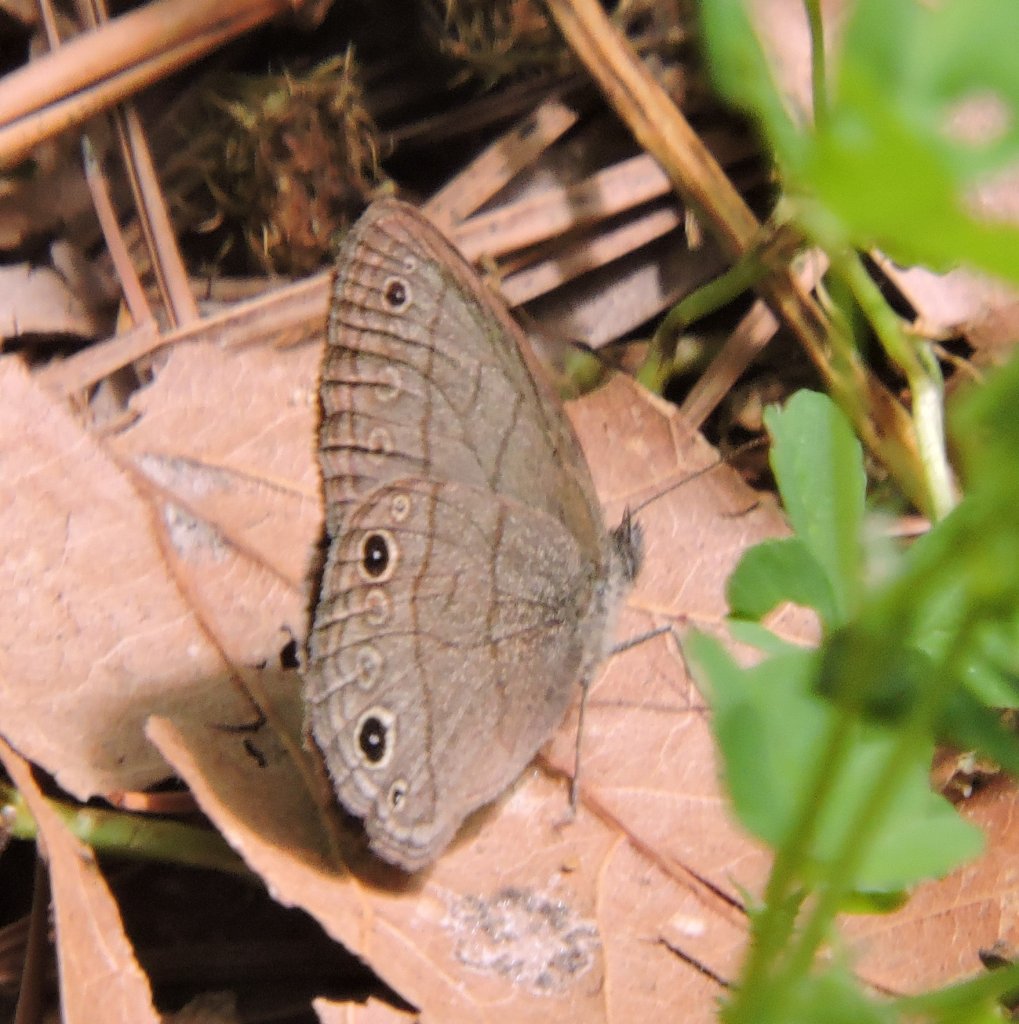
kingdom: Animalia
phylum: Arthropoda
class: Insecta
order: Lepidoptera
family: Nymphalidae
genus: Hermeuptychia
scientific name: Hermeuptychia hermes
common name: Carolina Satyr
